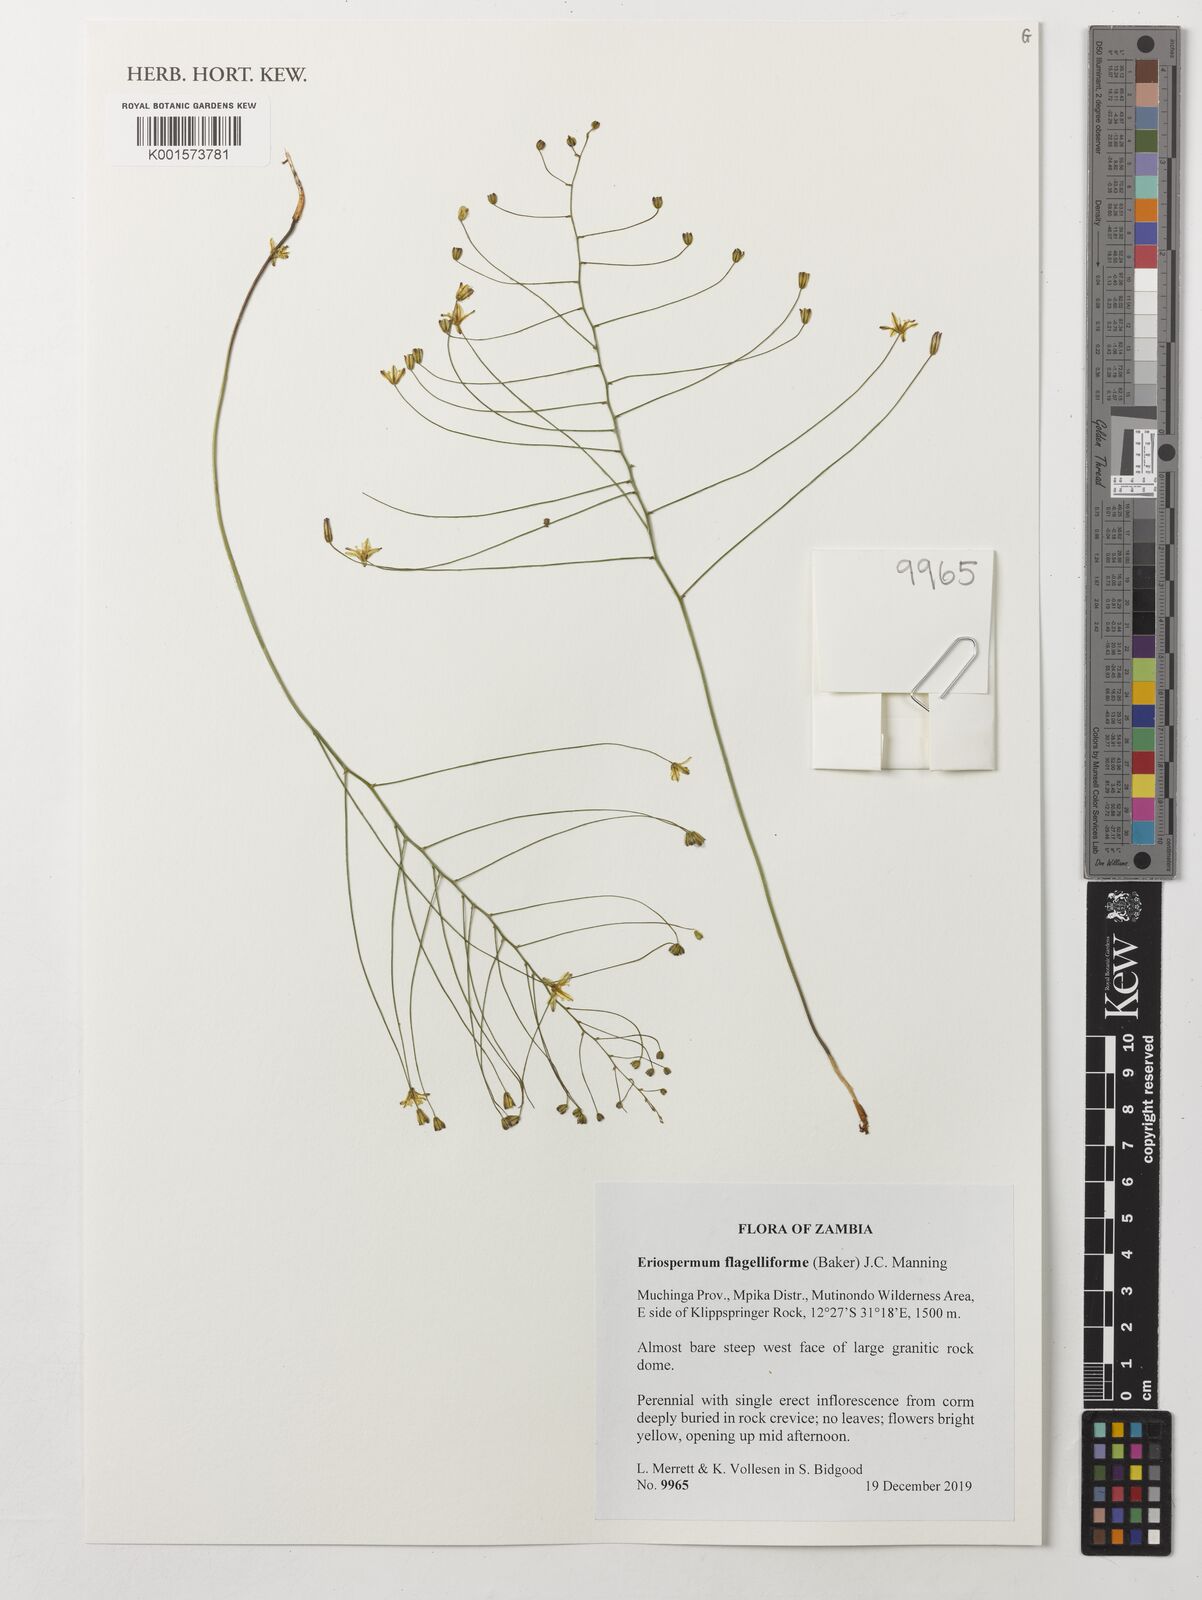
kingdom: Plantae
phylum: Tracheophyta
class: Liliopsida
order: Asparagales
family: Asparagaceae
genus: Eriospermum
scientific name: Eriospermum abyssinicum
